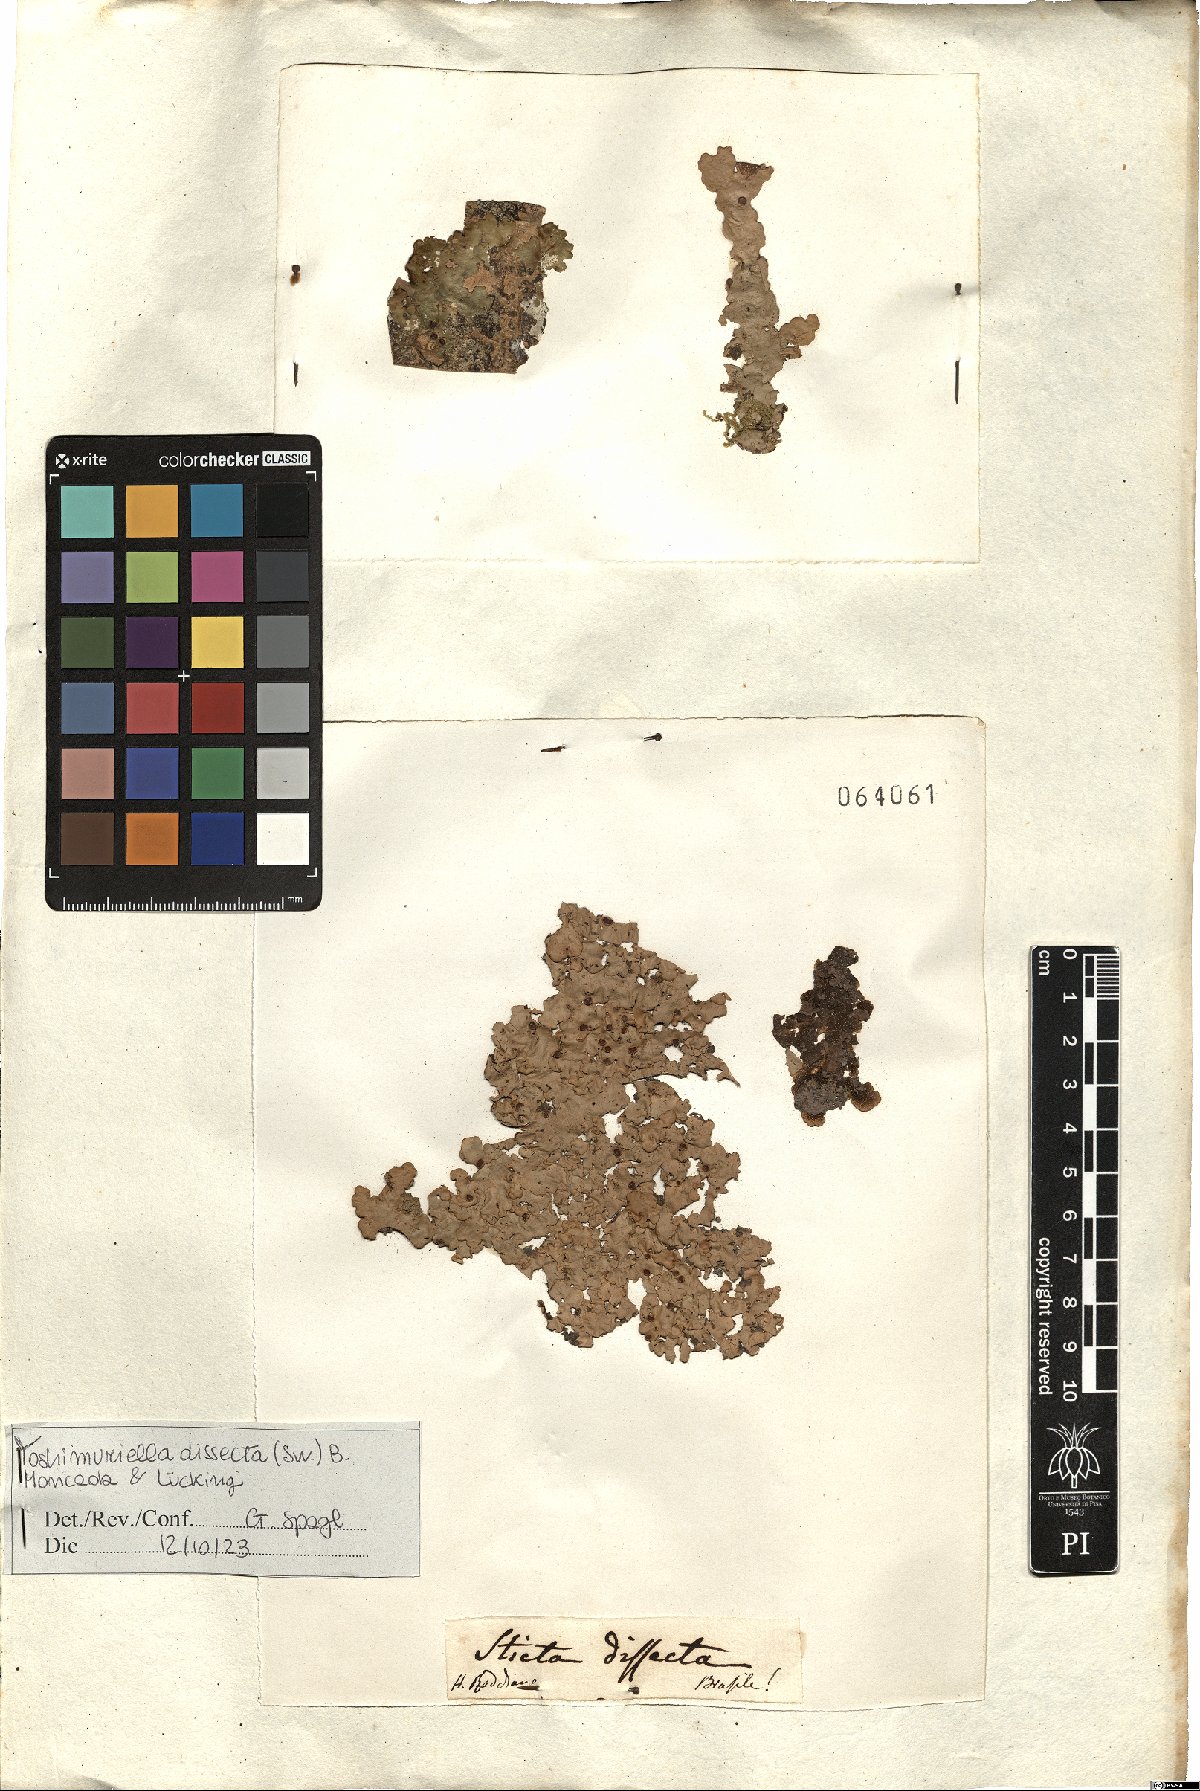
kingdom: Fungi
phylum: Ascomycota
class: Lecanoromycetes
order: Peltigerales
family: Lobariaceae
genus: Yoshimuriella
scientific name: Yoshimuriella dissecta
